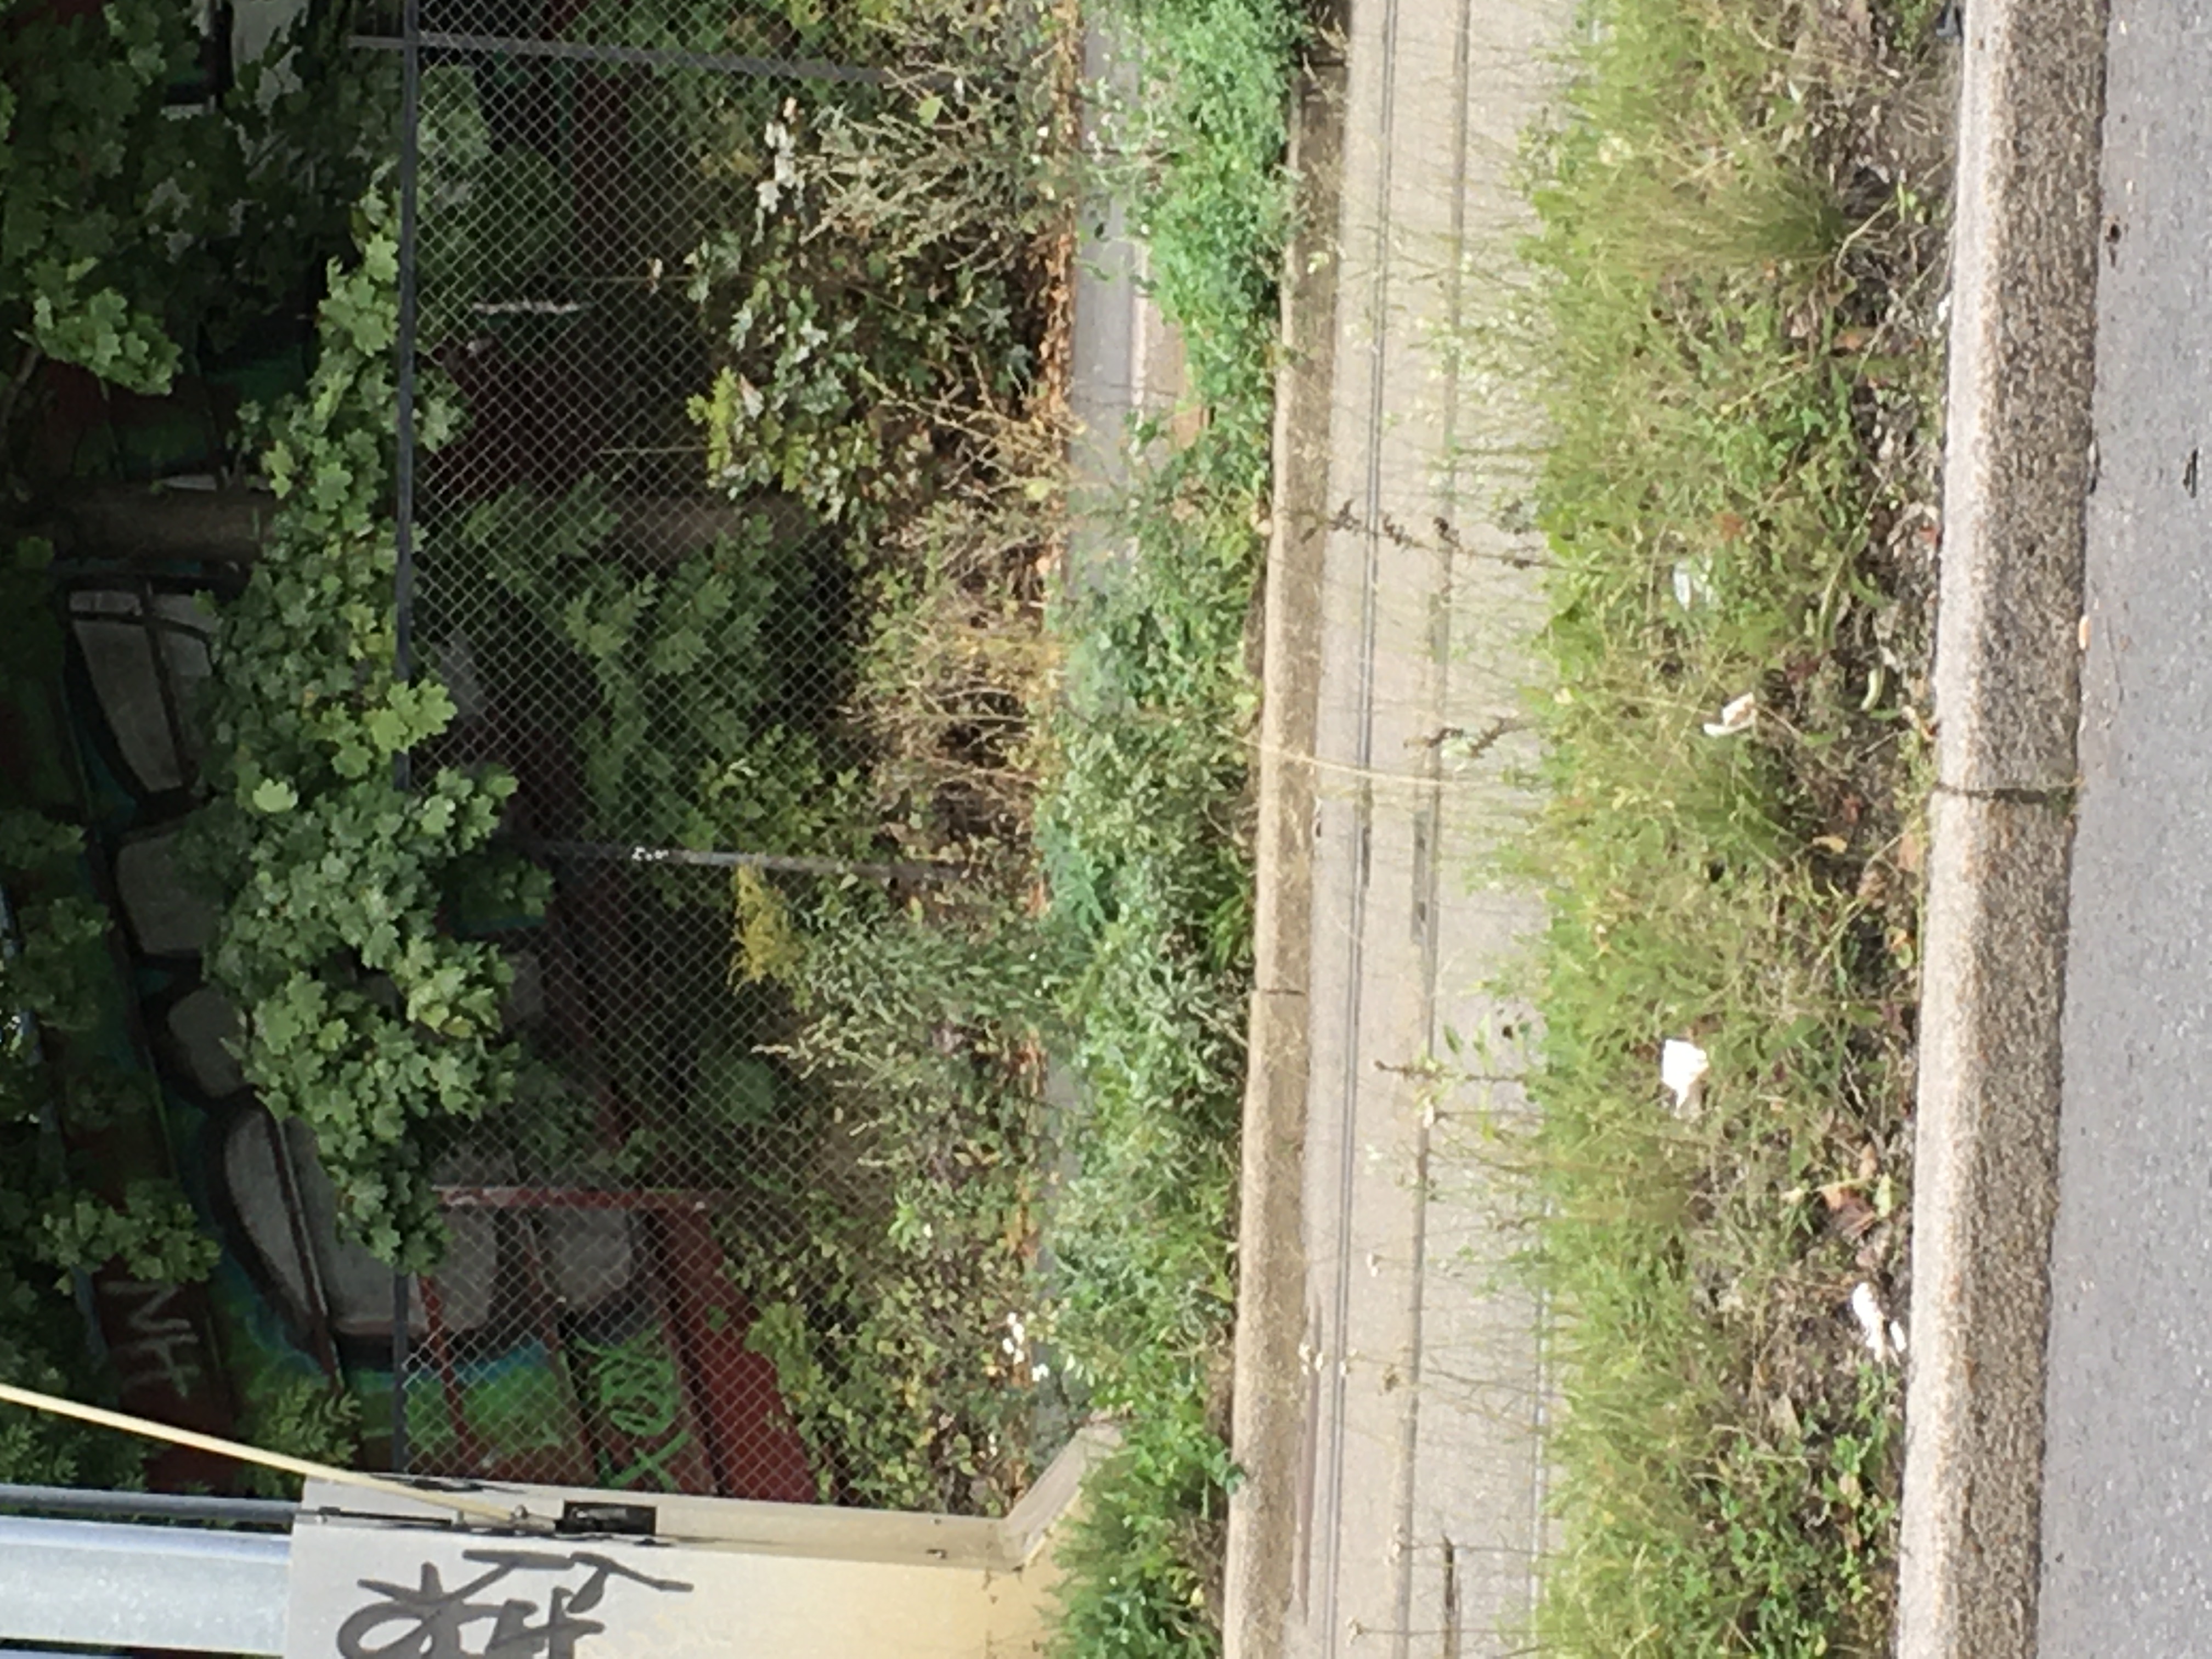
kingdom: Plantae
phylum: Tracheophyta
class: Magnoliopsida
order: Asterales
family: Asteraceae
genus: Solidago
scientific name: Solidago canadensis
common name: kanadagullris
